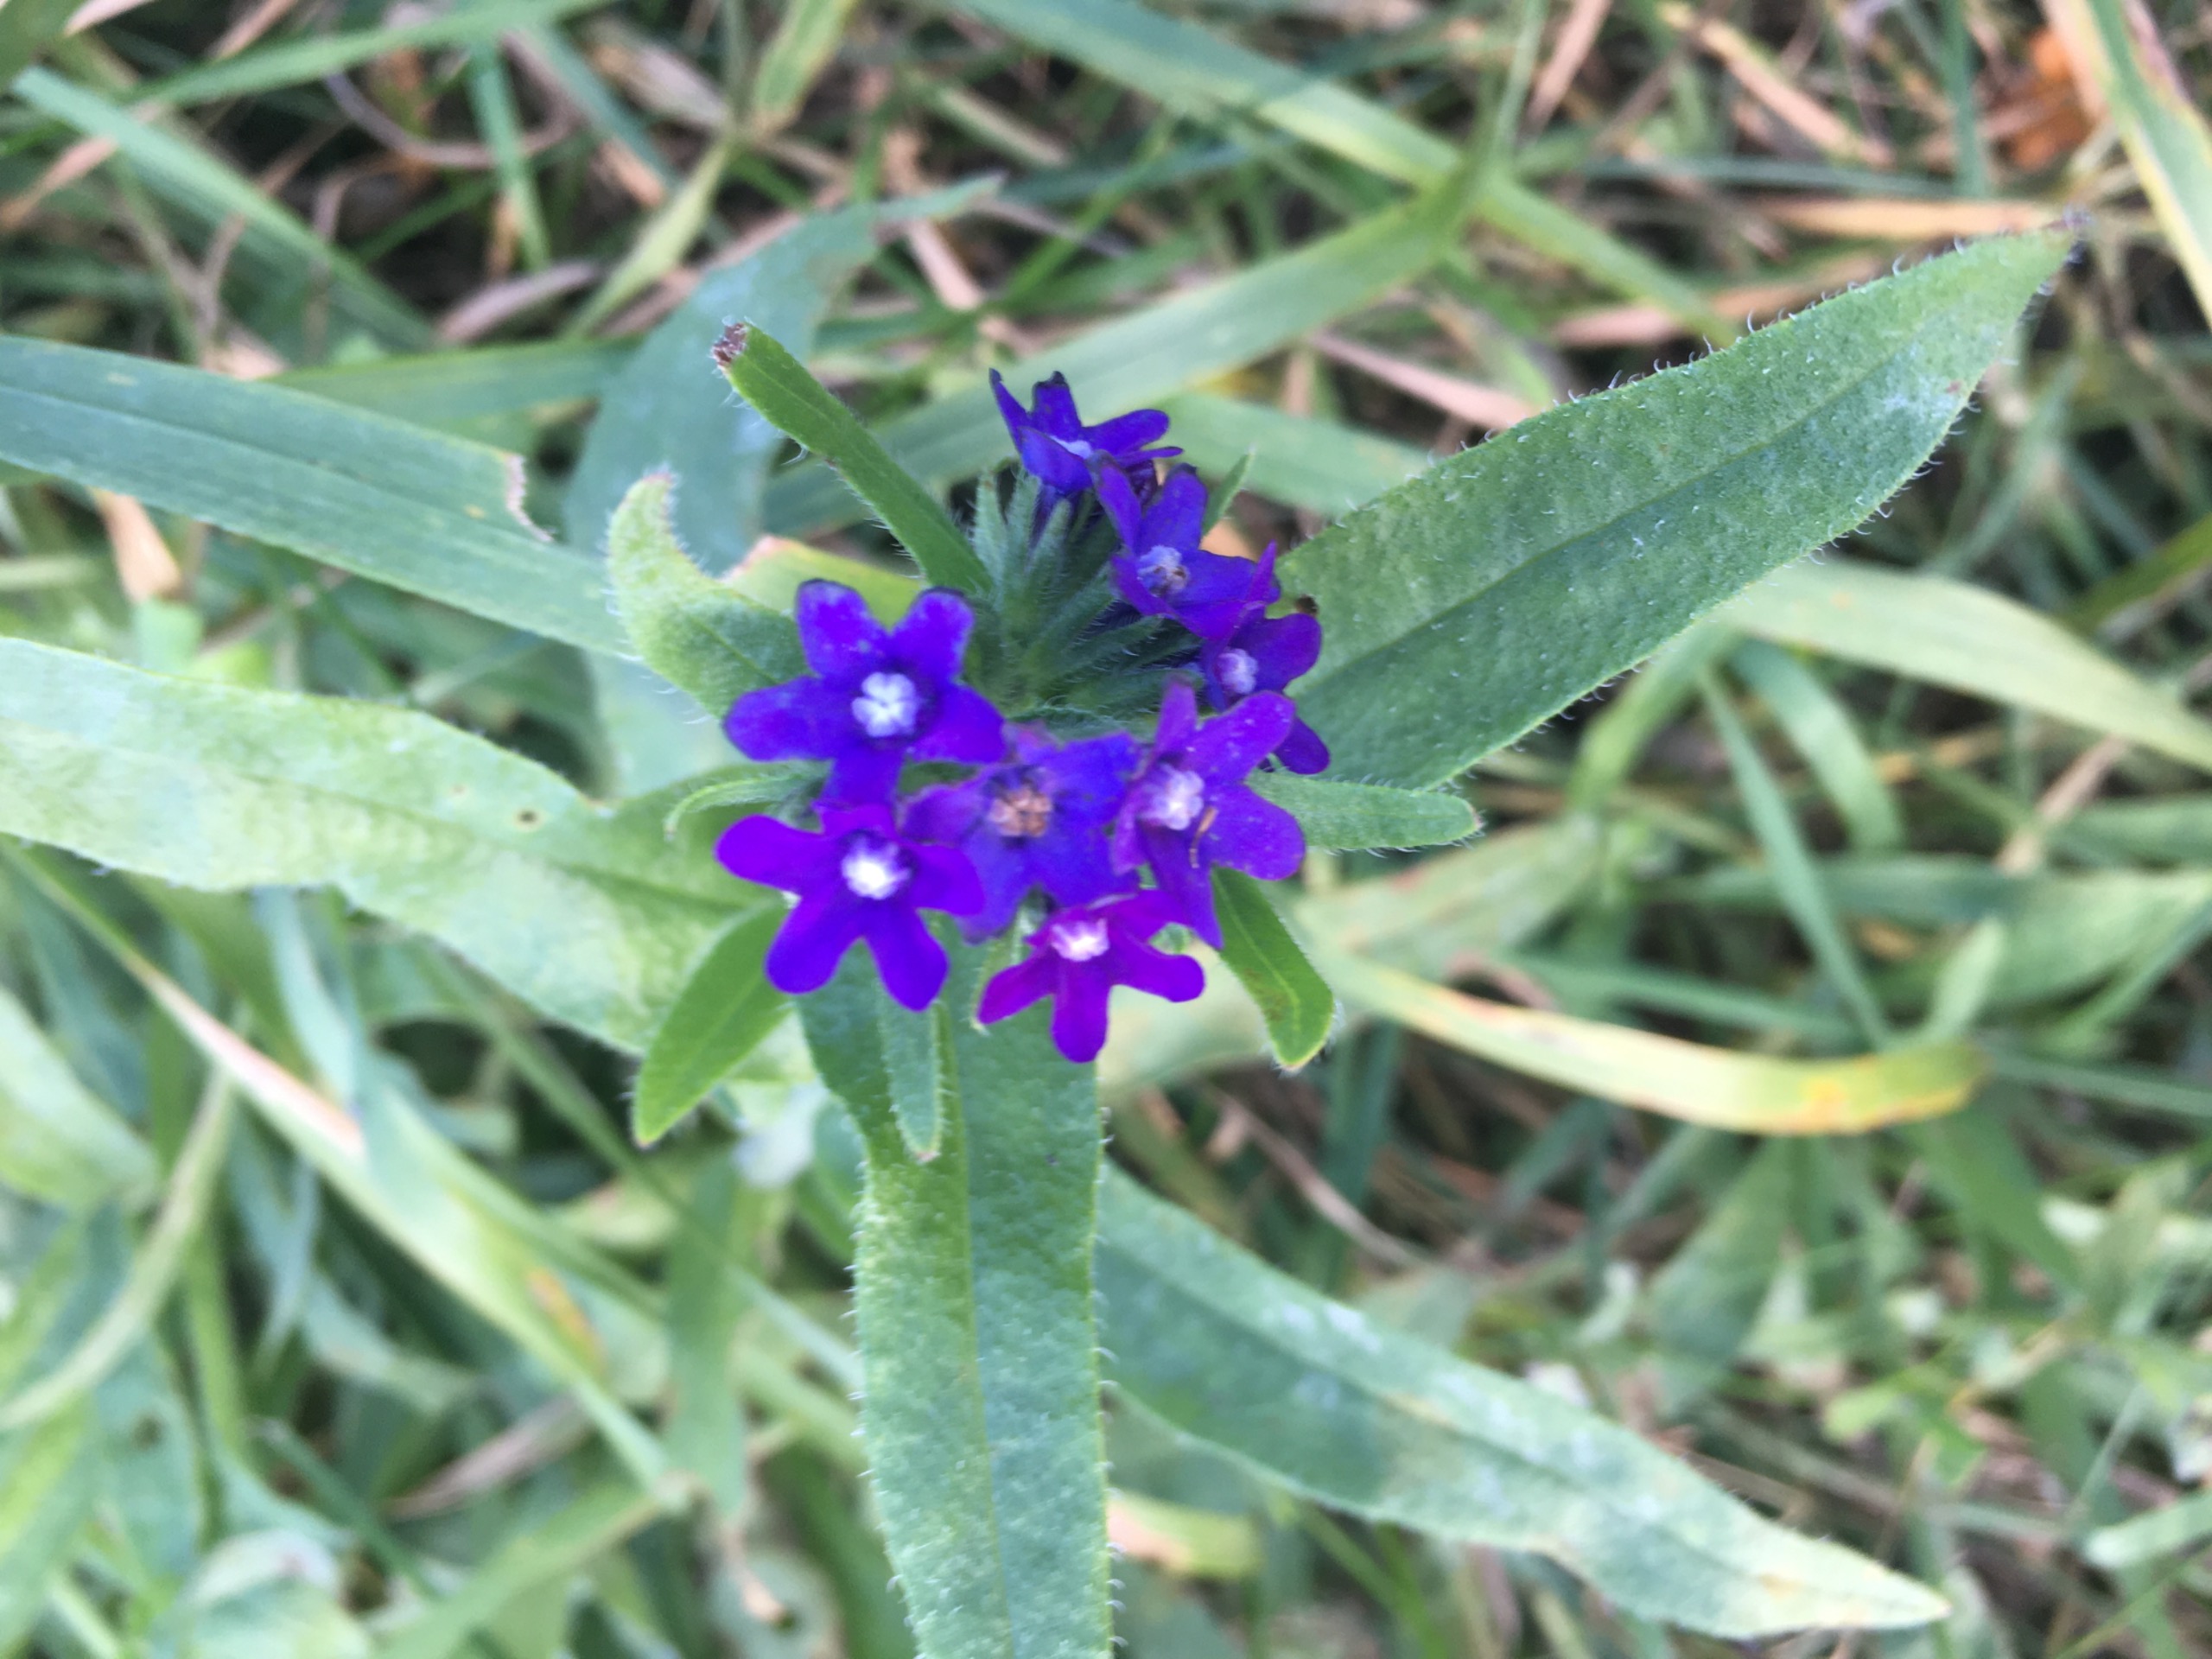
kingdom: Plantae
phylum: Tracheophyta
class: Magnoliopsida
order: Boraginales
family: Boraginaceae
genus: Anchusa
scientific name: Anchusa officinalis
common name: Læge-oksetunge
